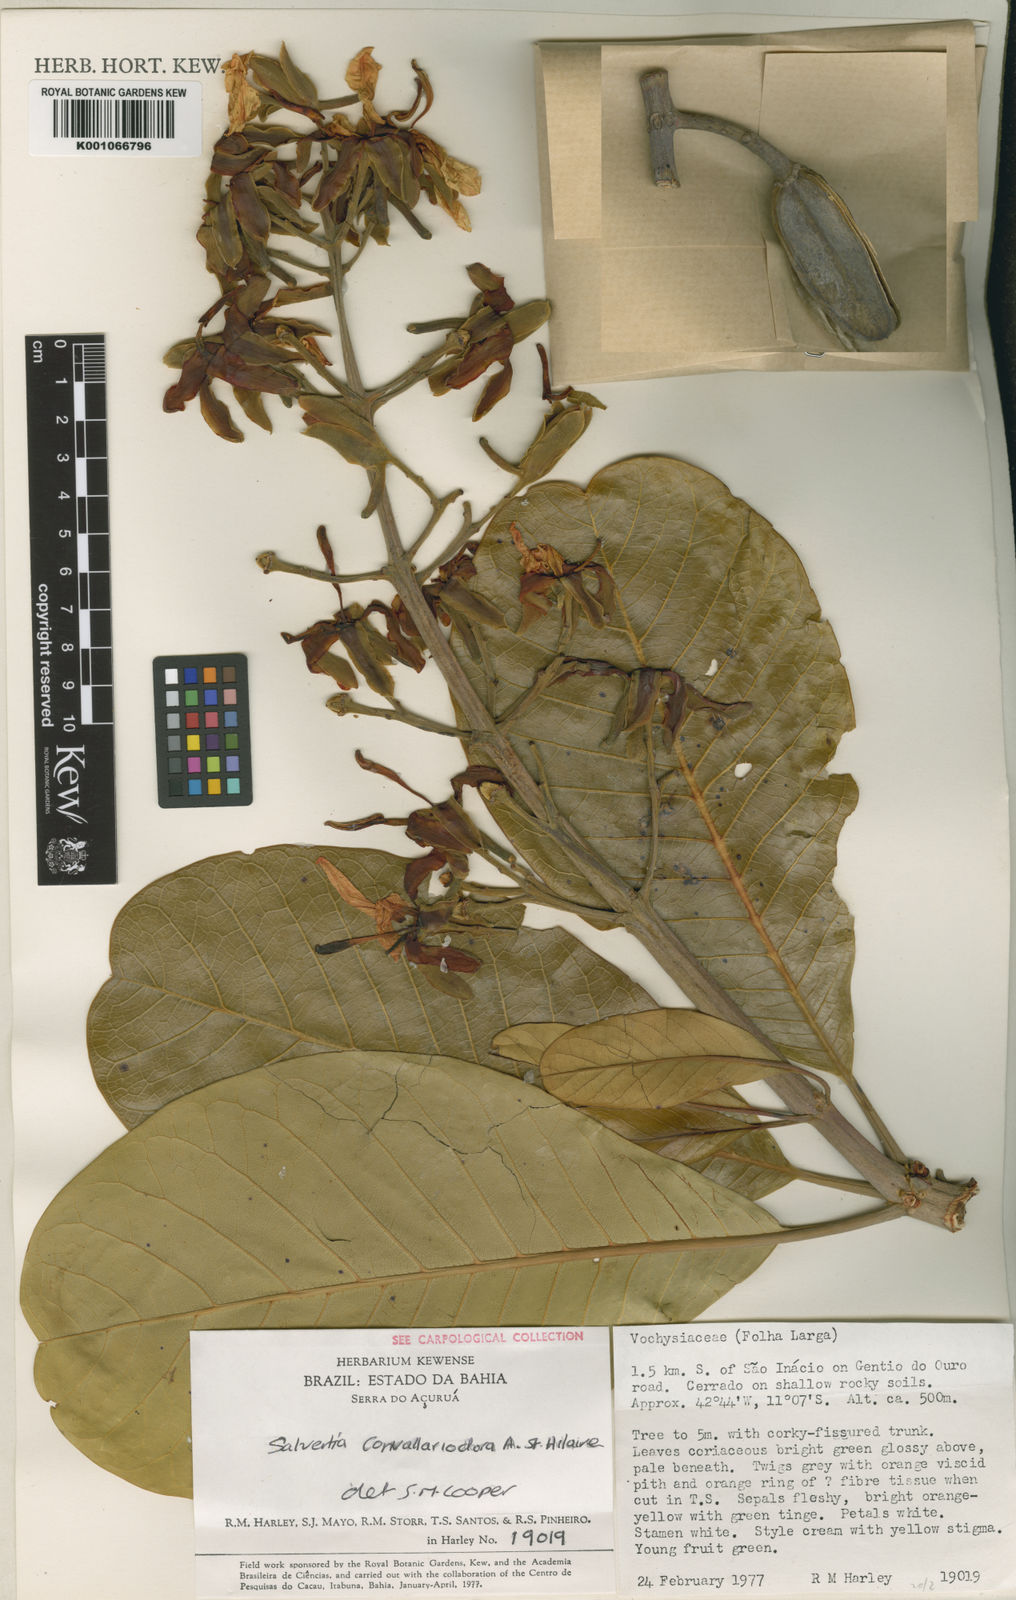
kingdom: Plantae
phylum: Tracheophyta
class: Magnoliopsida
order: Myrtales
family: Vochysiaceae
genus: Salvertia
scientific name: Salvertia convallariodora
